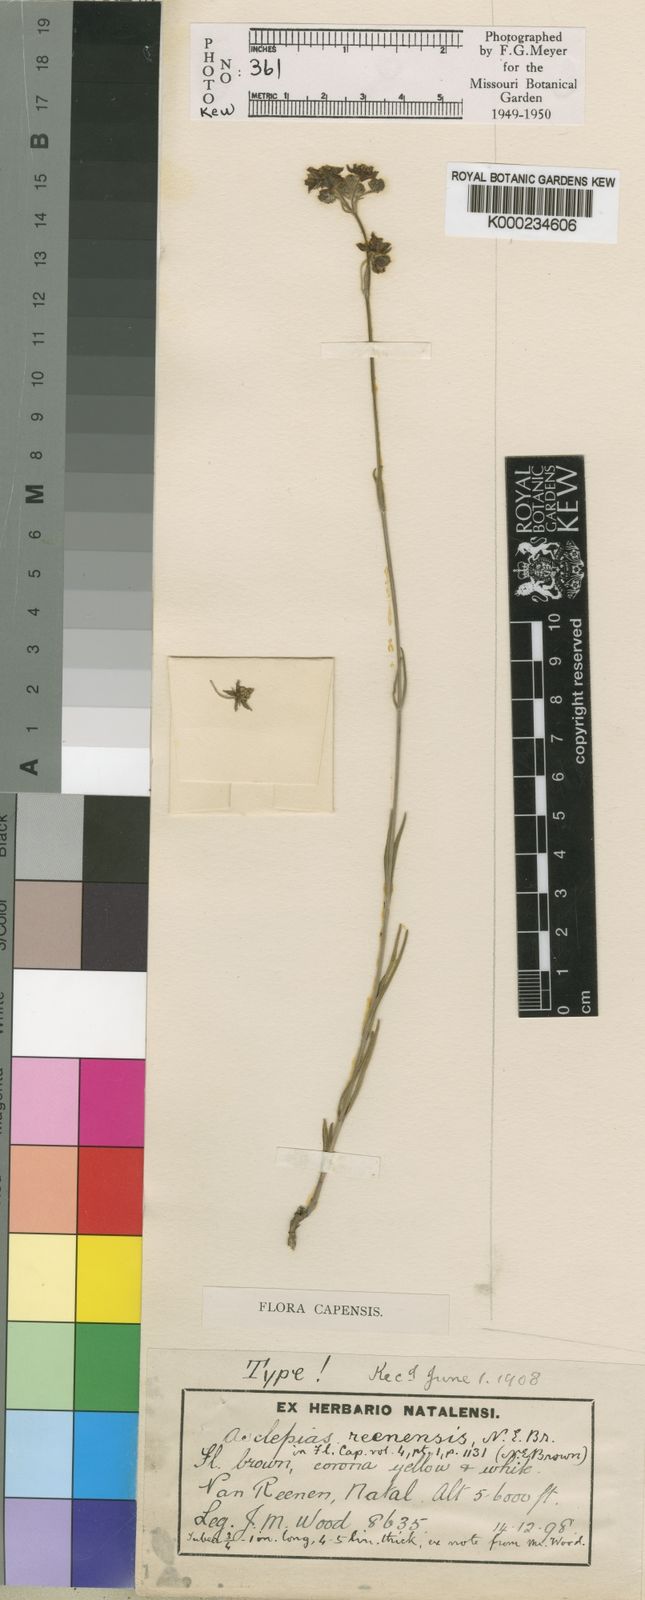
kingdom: Plantae
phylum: Tracheophyta
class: Magnoliopsida
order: Gentianales
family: Apocynaceae
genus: Aspidonepsis
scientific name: Aspidonepsis reenensis
